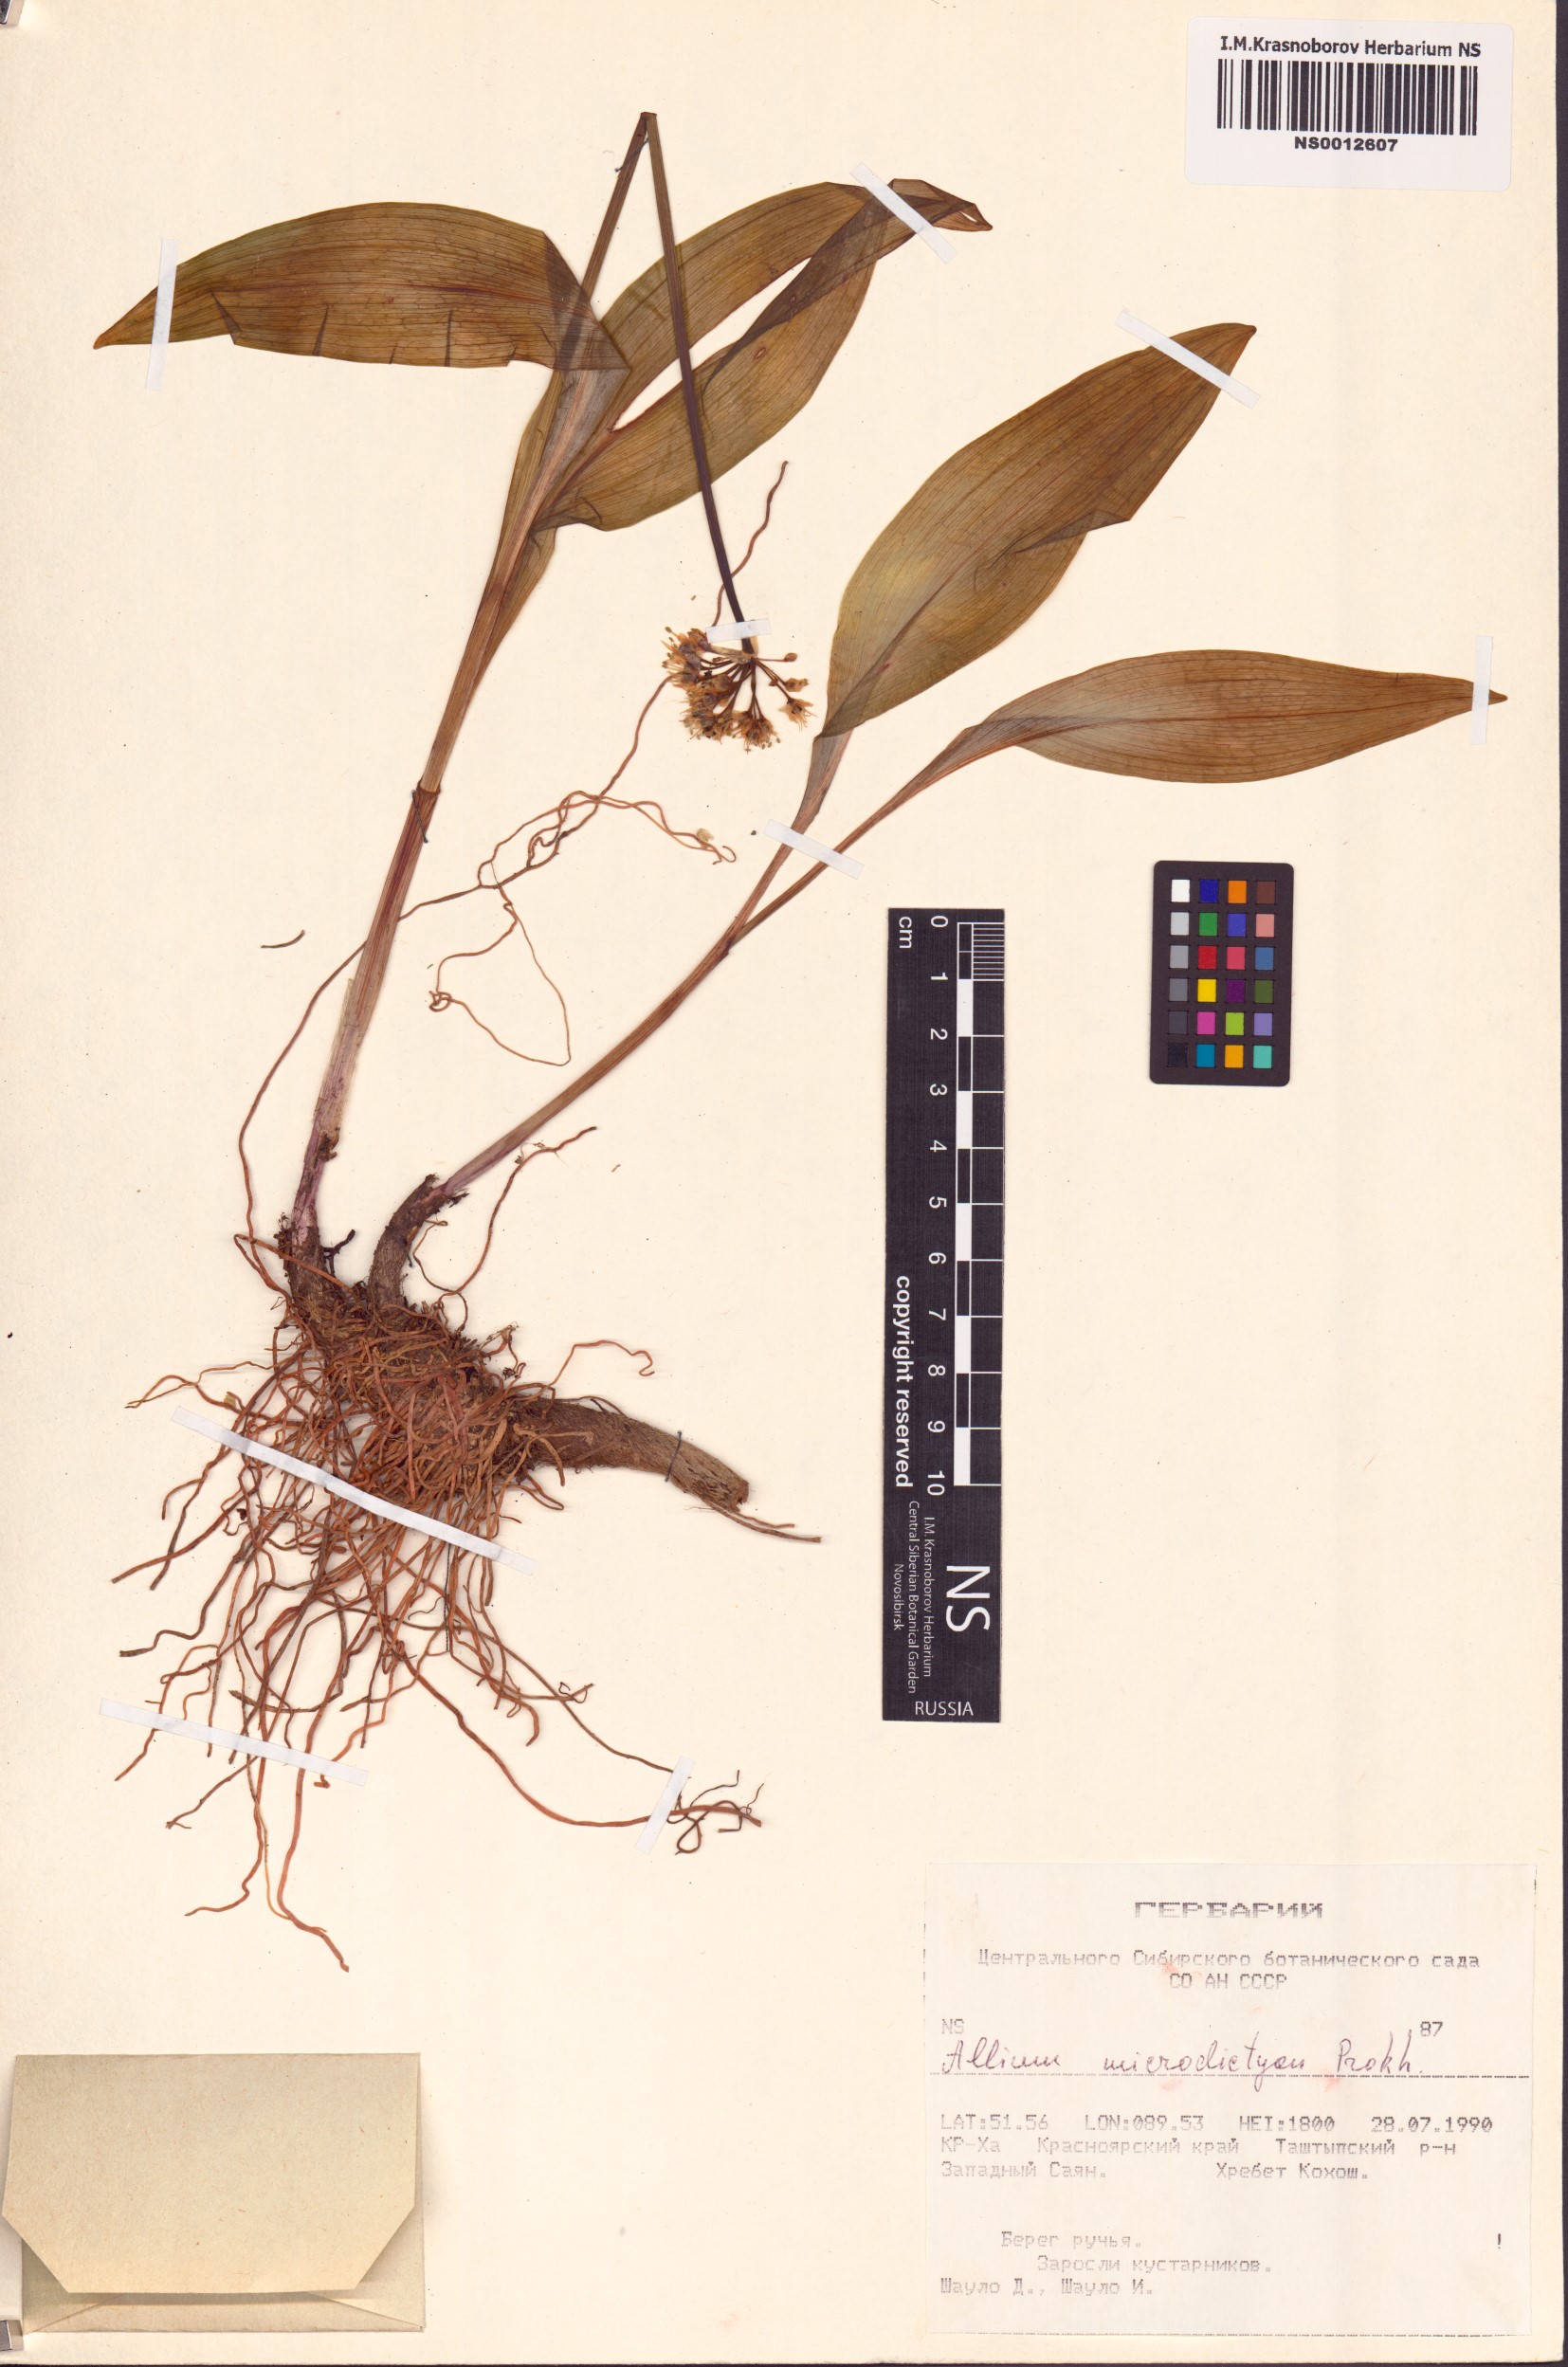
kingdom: Plantae
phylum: Tracheophyta
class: Liliopsida
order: Asparagales
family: Amaryllidaceae
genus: Allium
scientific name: Allium microdictyon
